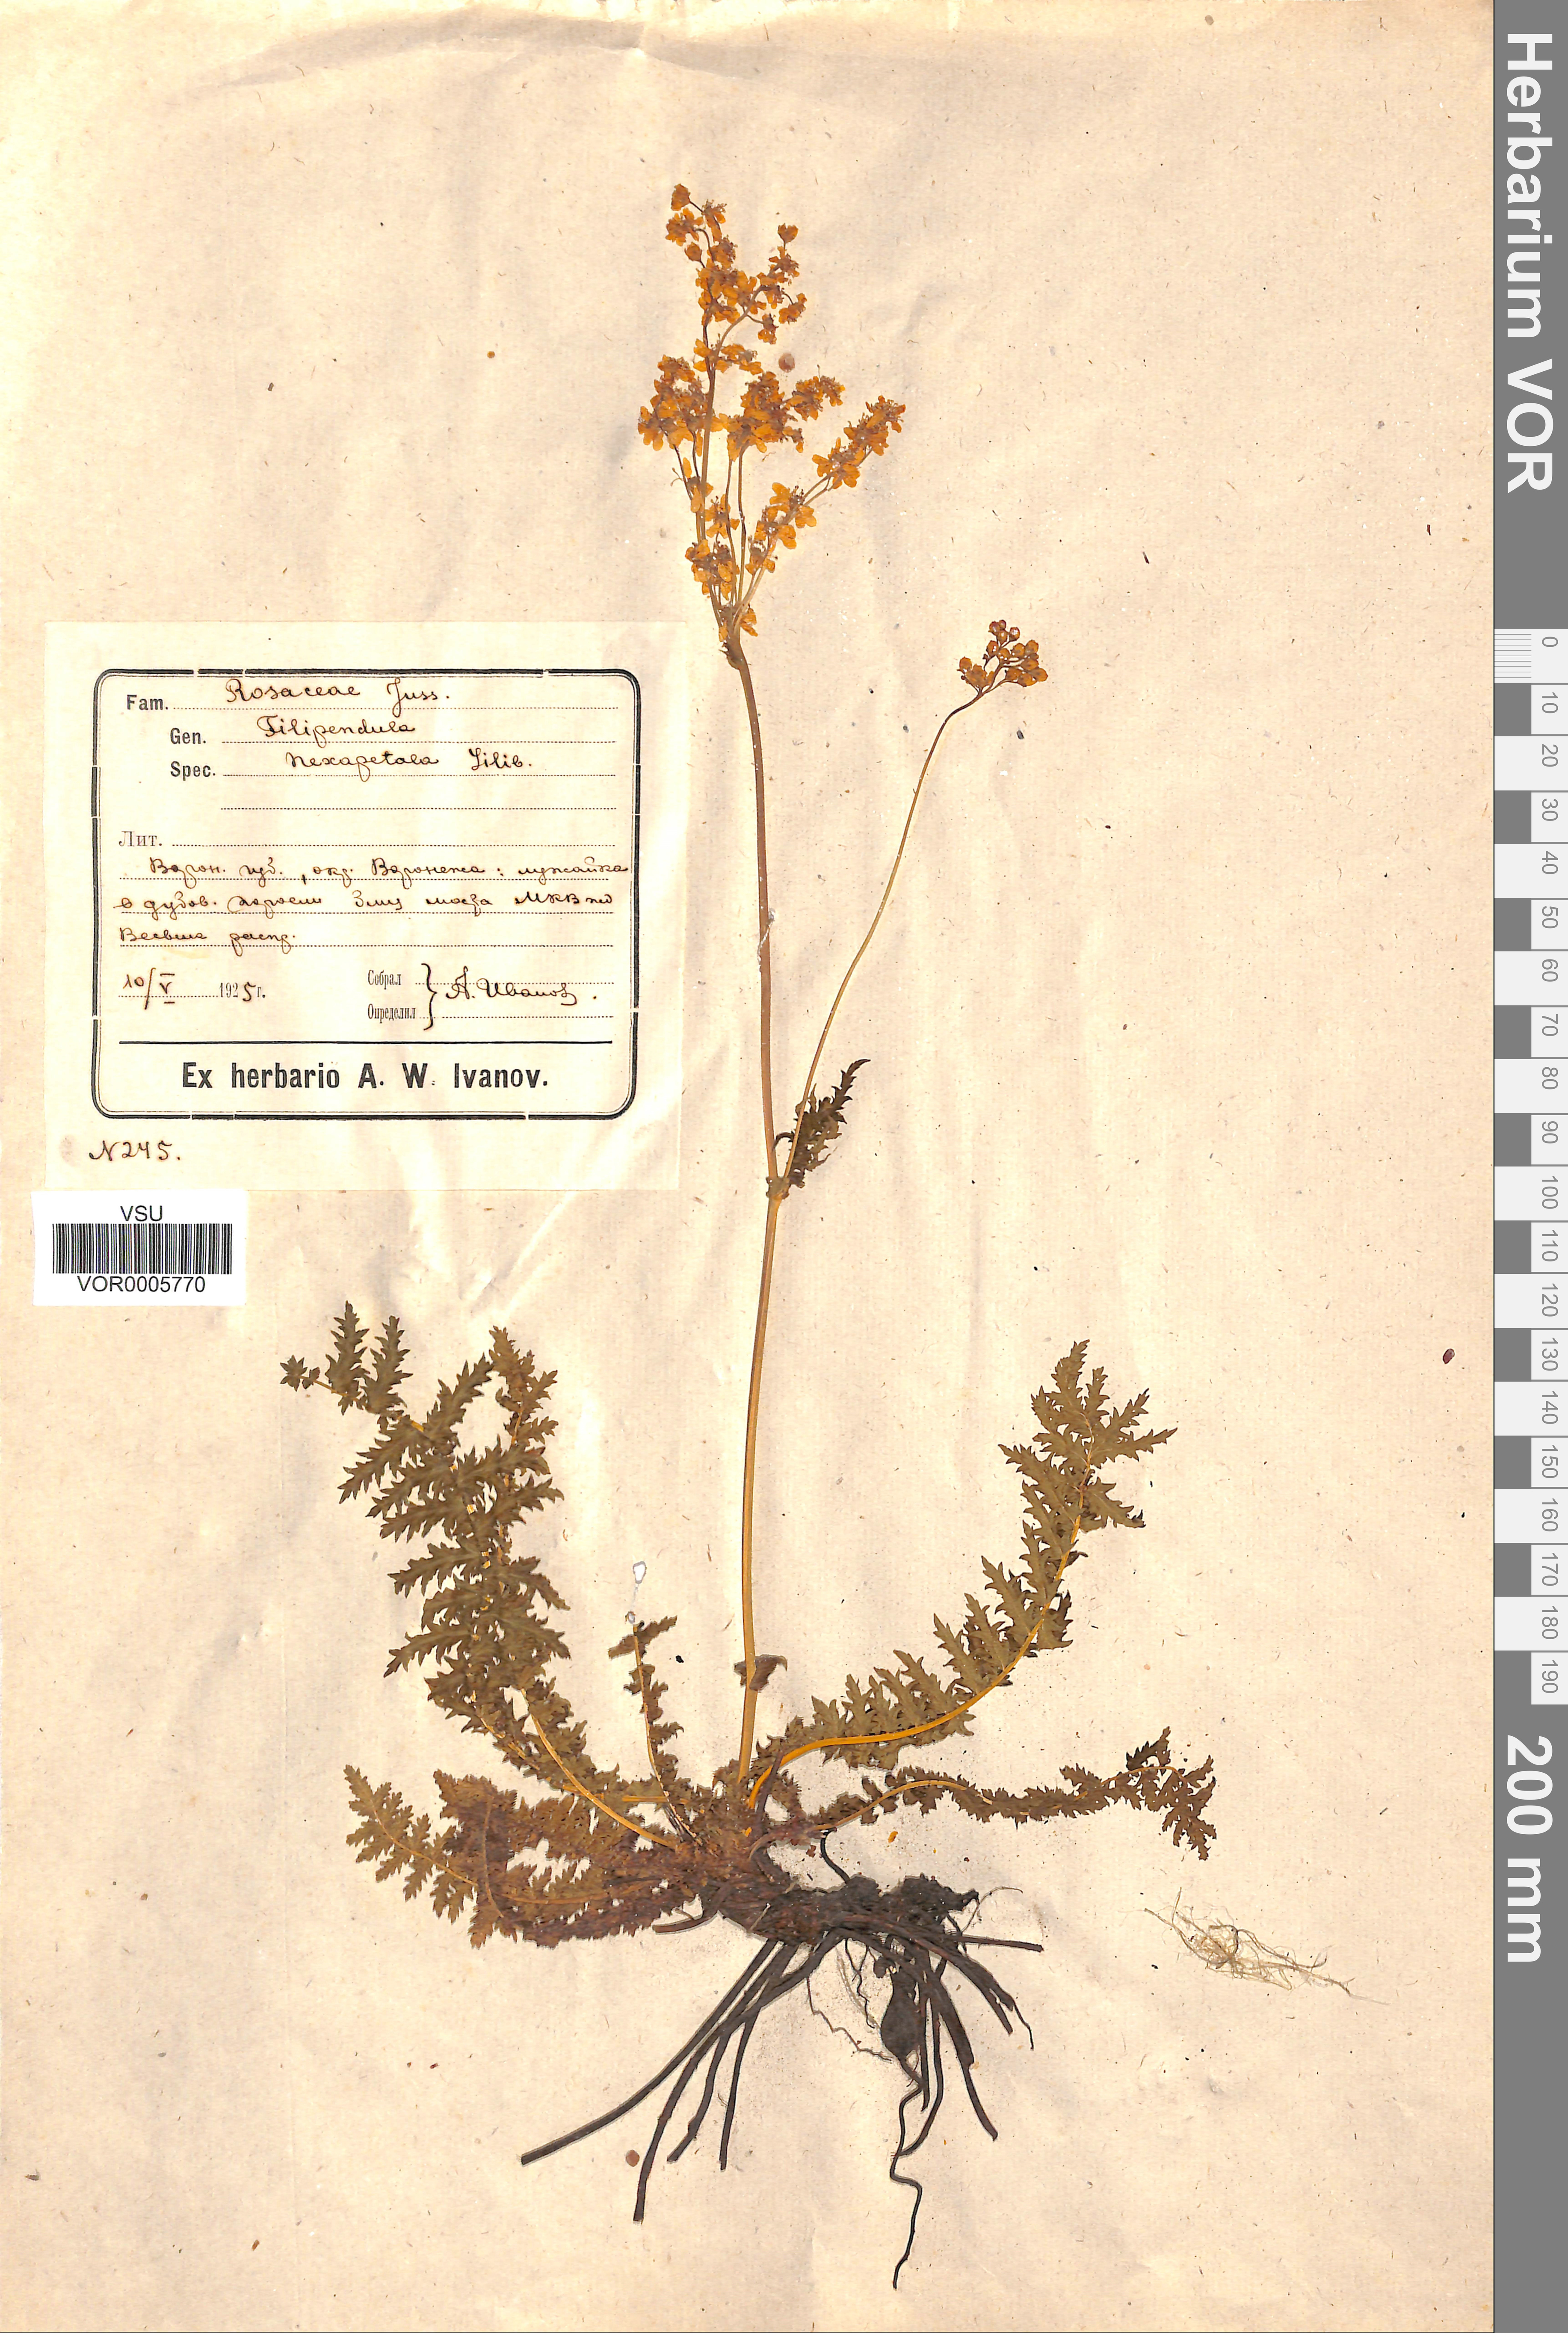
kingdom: Plantae
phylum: Tracheophyta
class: Magnoliopsida
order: Rosales
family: Rosaceae
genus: Filipendula
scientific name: Filipendula vulgaris
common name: Dropwort
